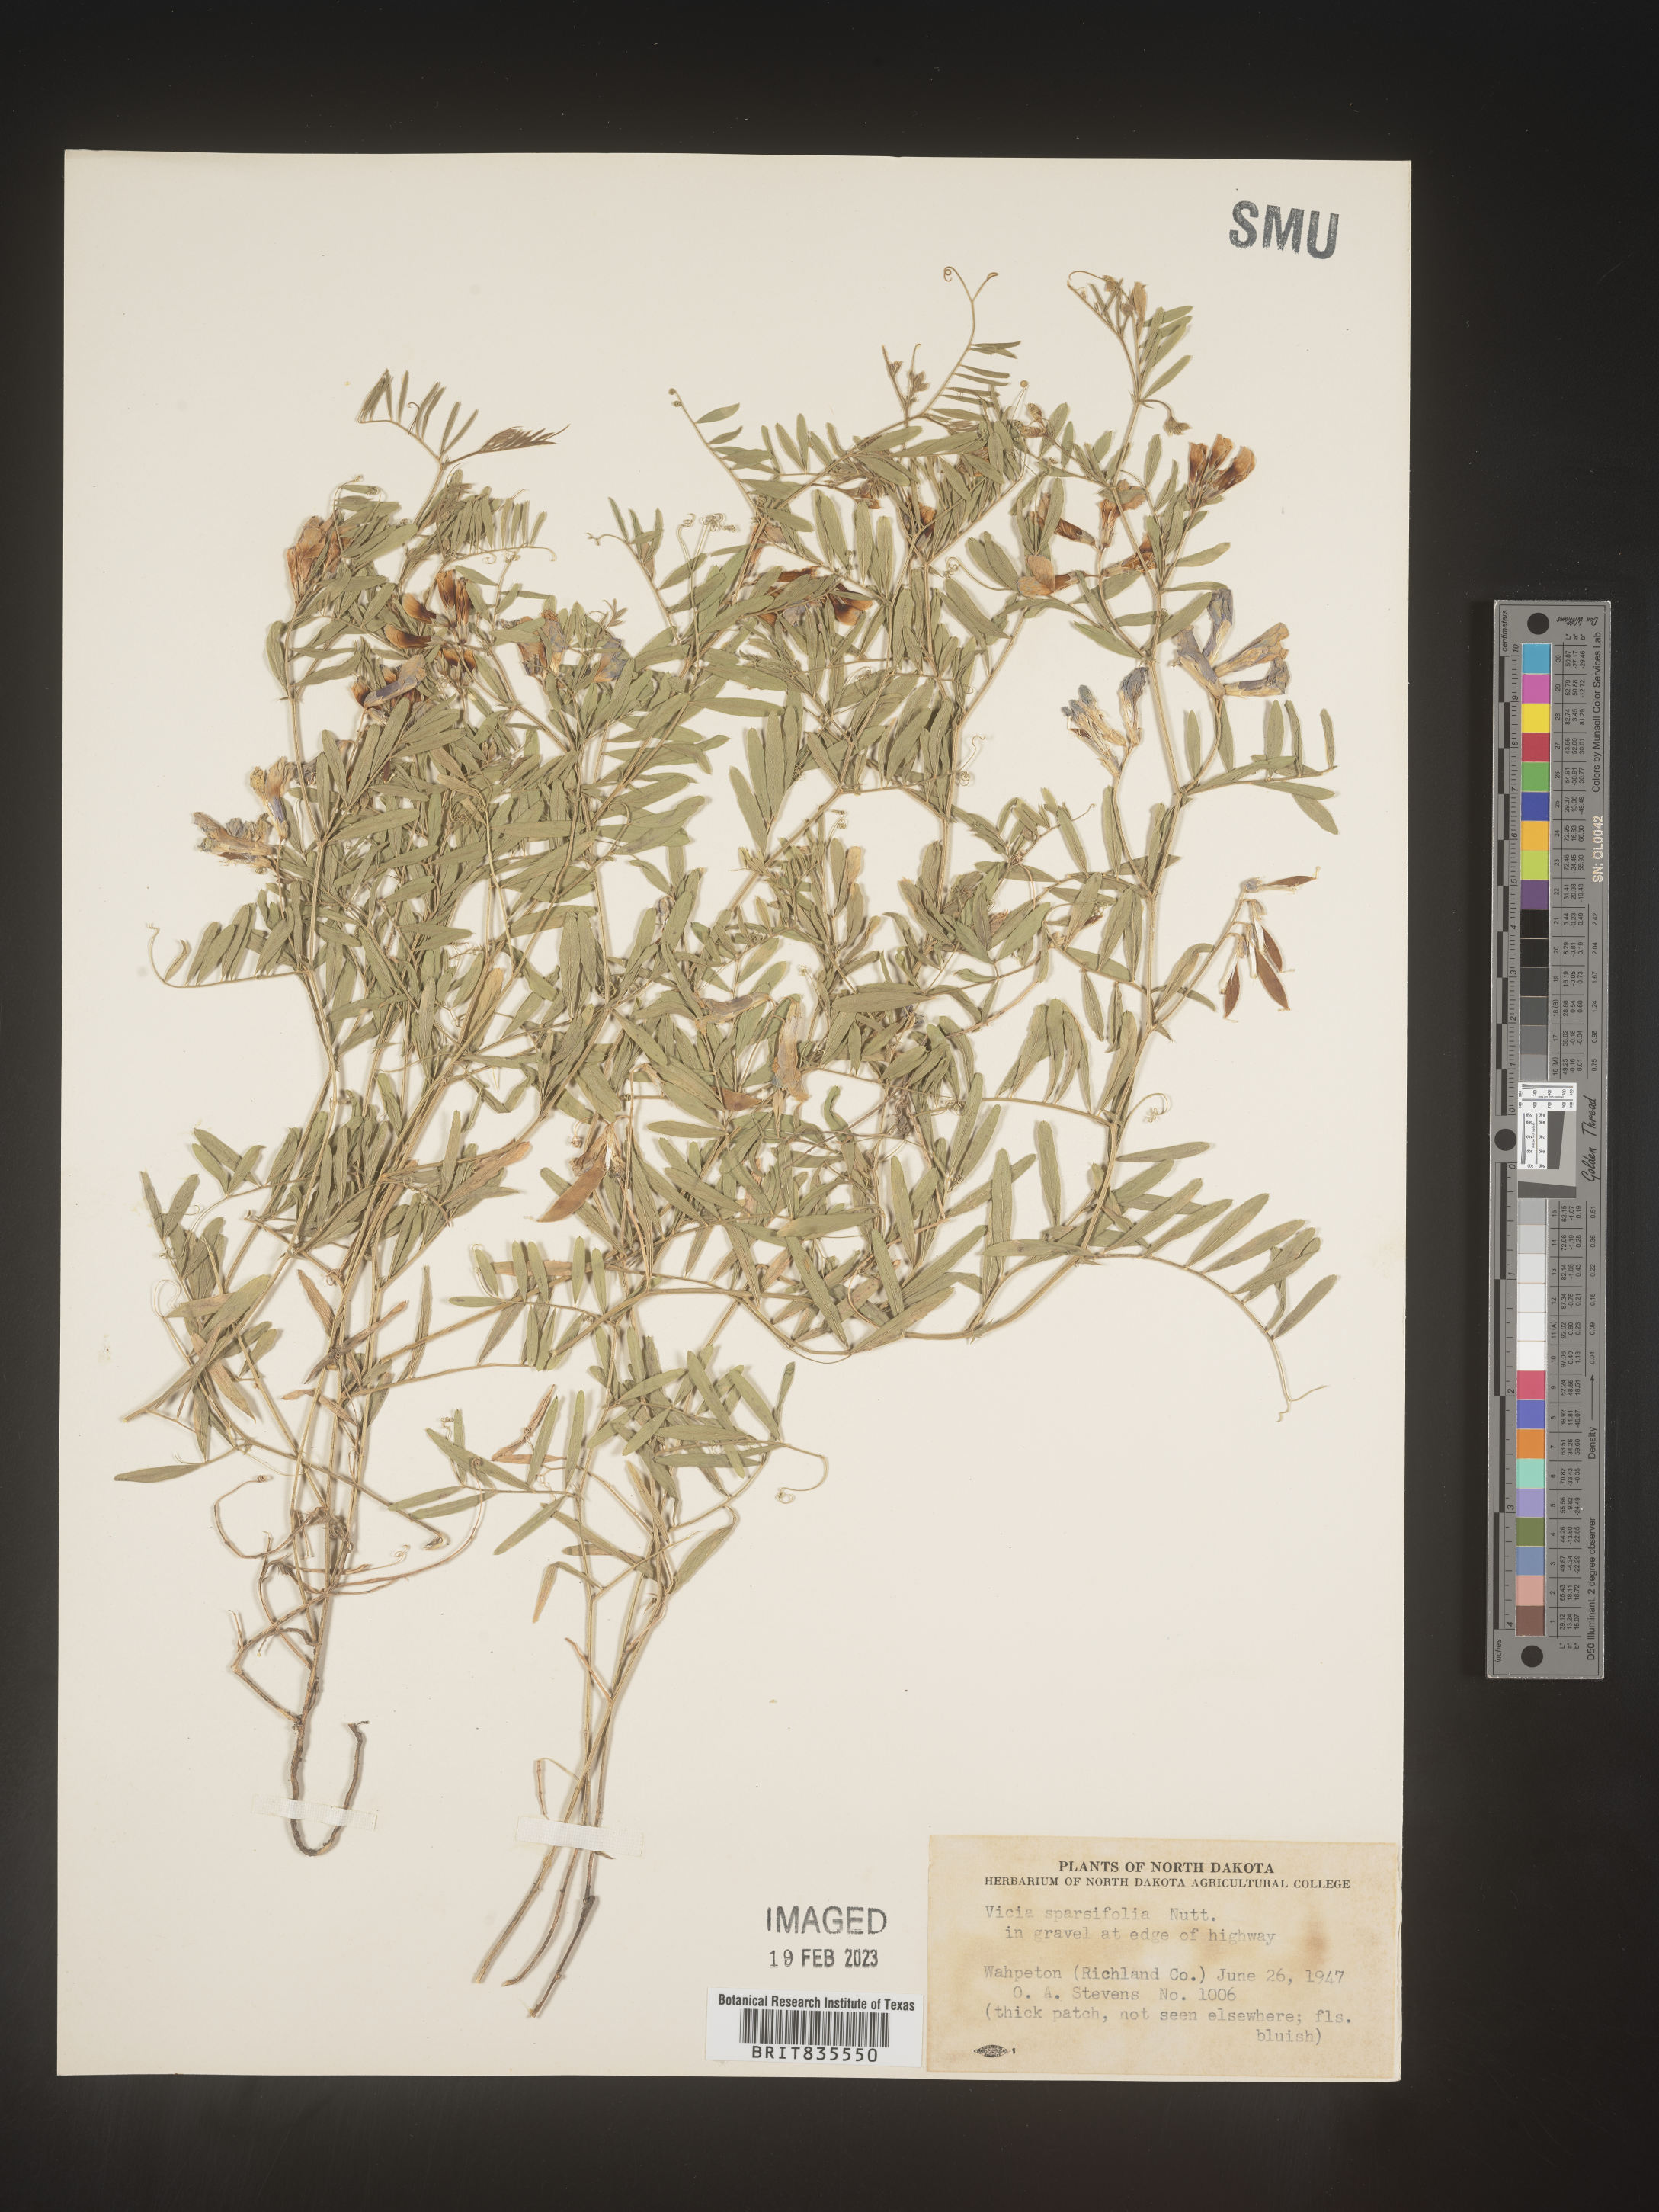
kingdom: Plantae
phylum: Tracheophyta
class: Magnoliopsida
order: Fabales
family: Fabaceae
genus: Vicia
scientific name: Vicia americana
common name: American vetch
